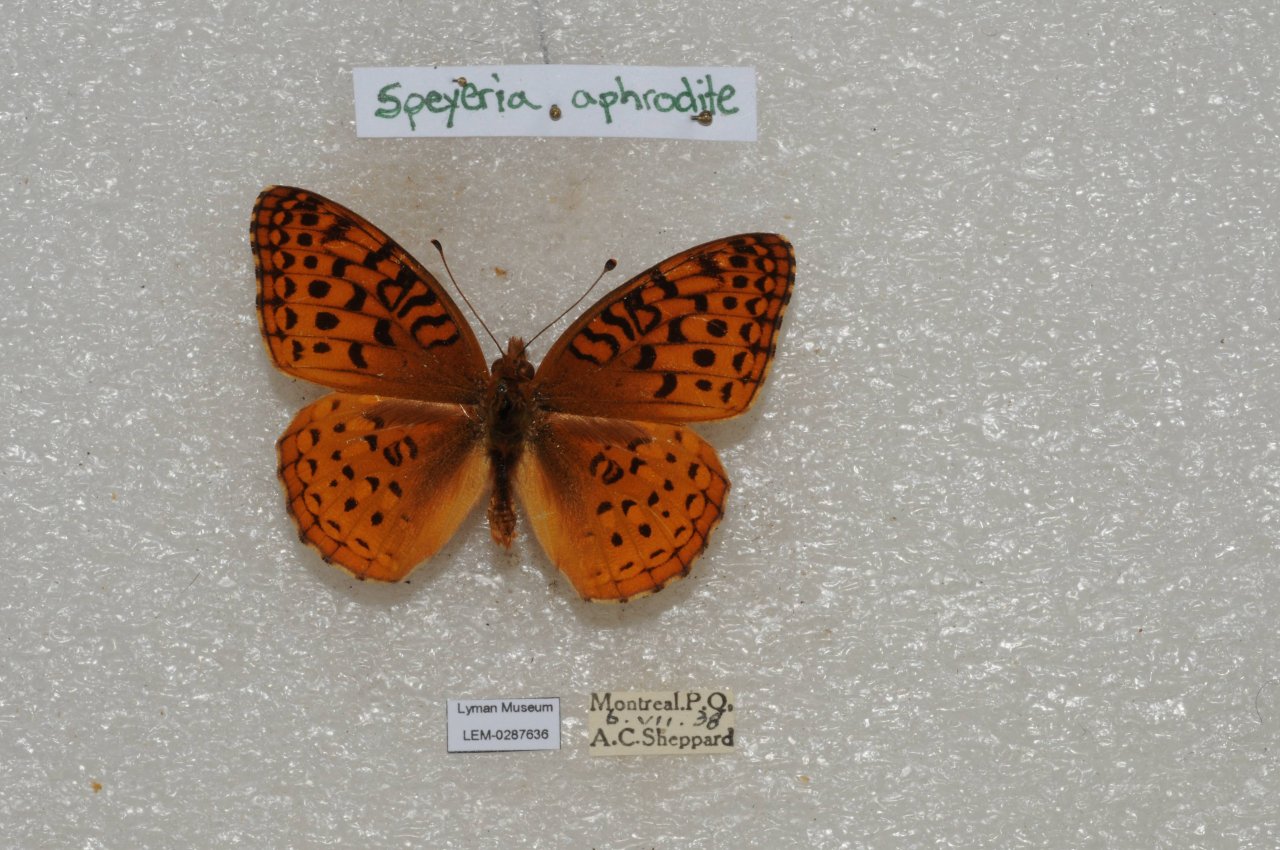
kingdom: Animalia
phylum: Arthropoda
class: Insecta
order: Lepidoptera
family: Nymphalidae
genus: Speyeria
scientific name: Speyeria aphrodite
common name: Aphrodite Fritillary
